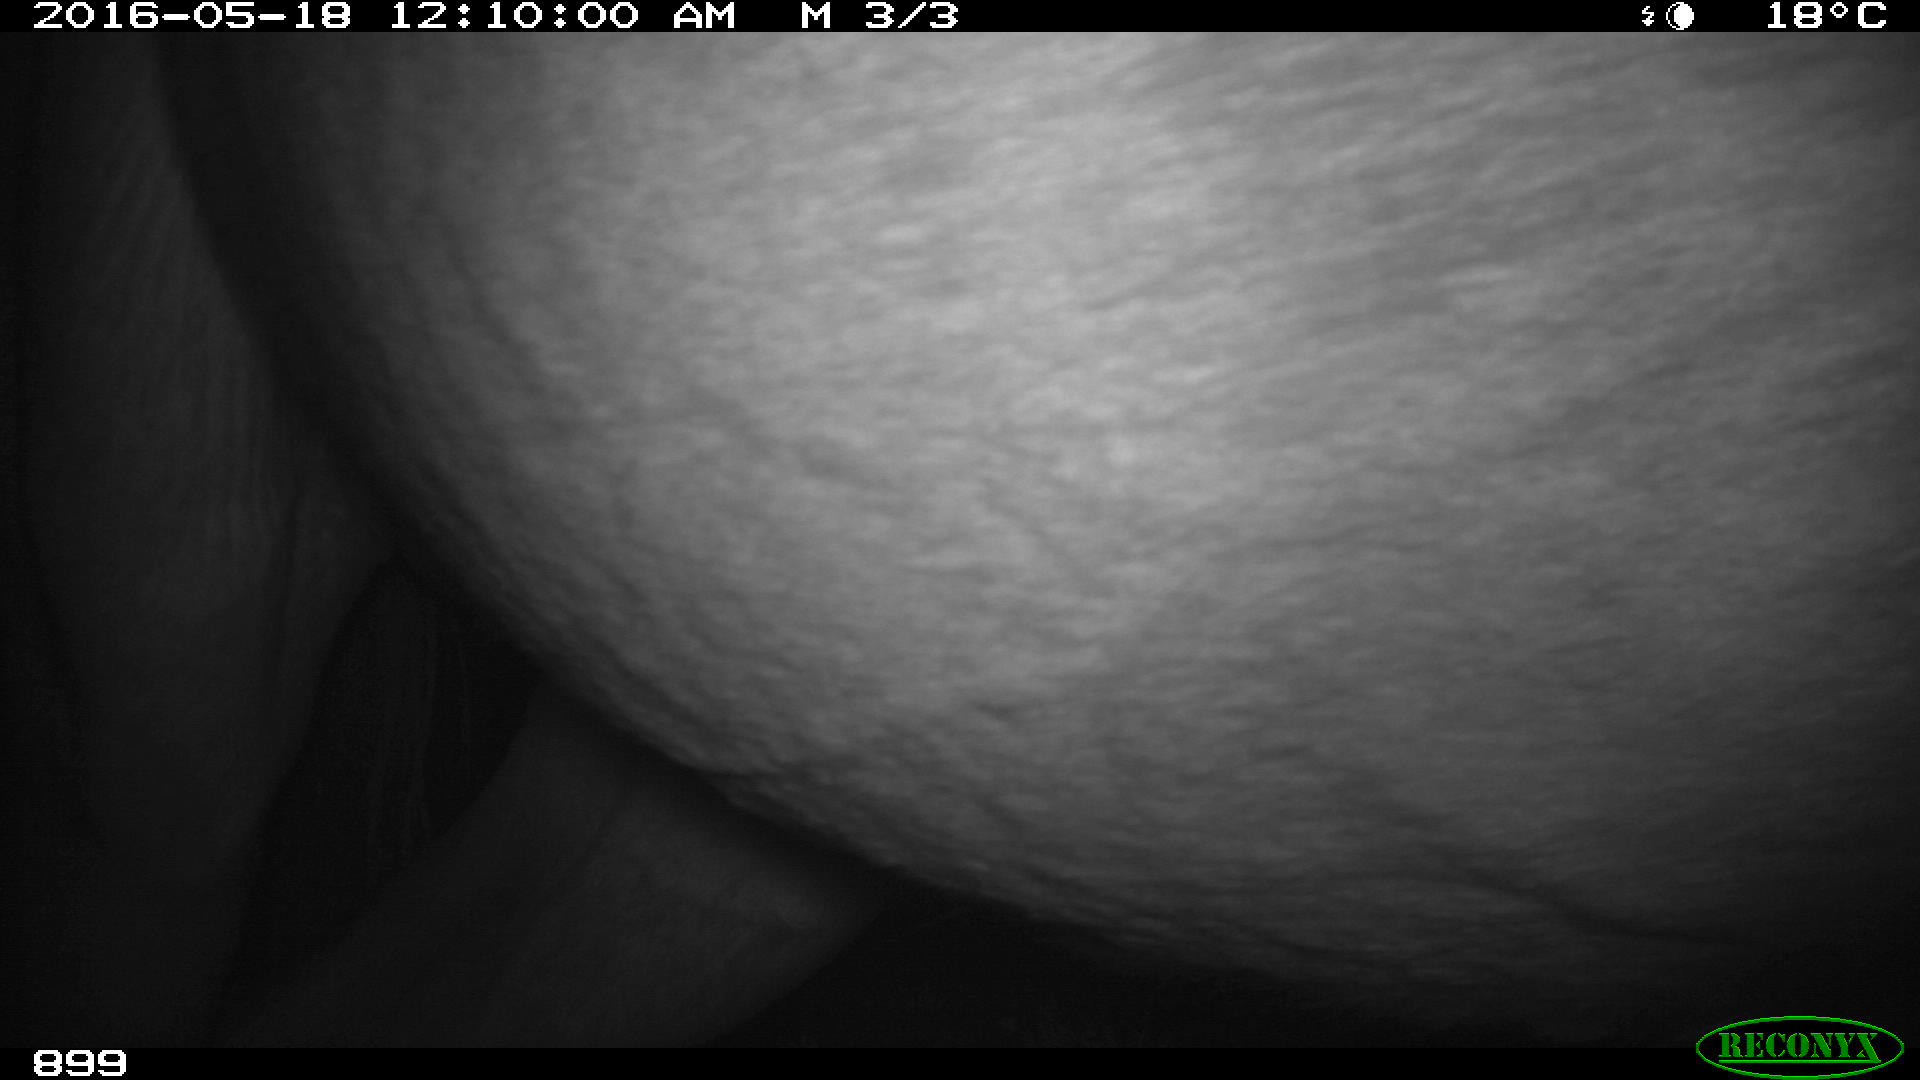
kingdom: Animalia
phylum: Chordata
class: Mammalia
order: Perissodactyla
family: Equidae
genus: Equus
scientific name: Equus caballus
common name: Horse
